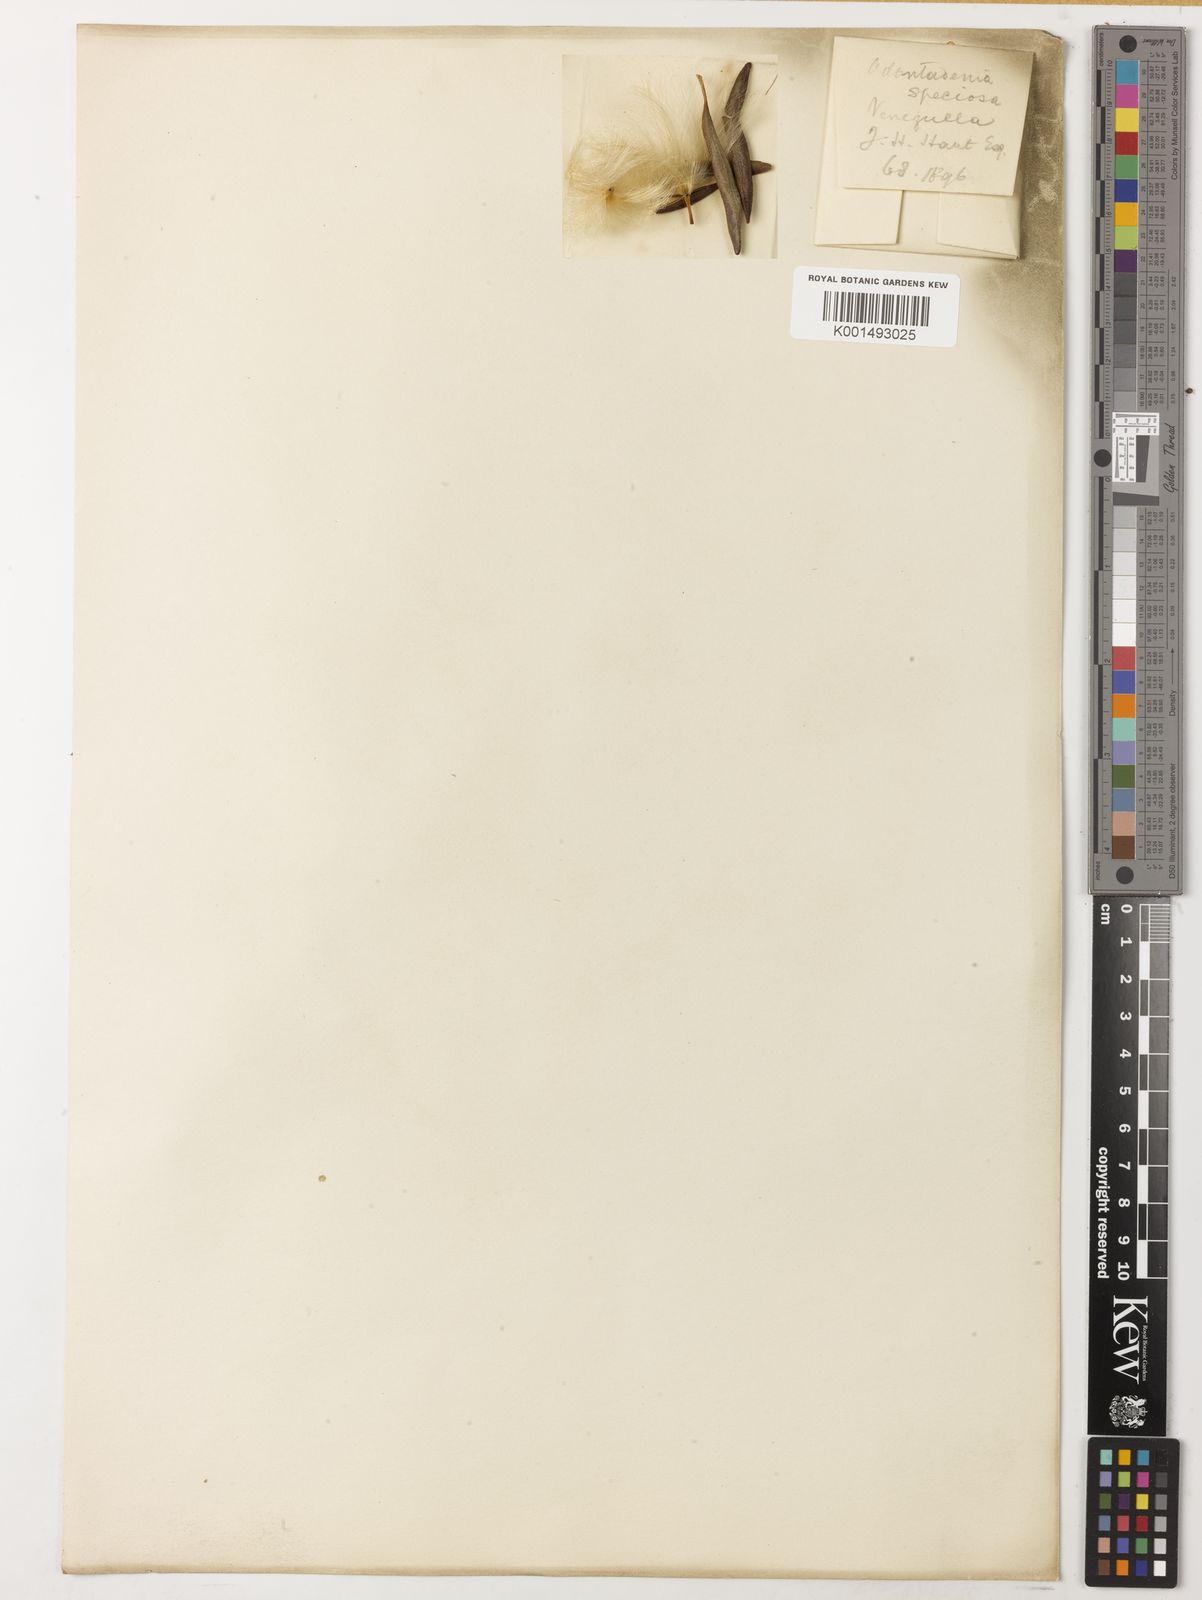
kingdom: Plantae
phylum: Tracheophyta
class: Magnoliopsida
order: Gentianales
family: Apocynaceae
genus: Odontadenia
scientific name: Odontadenia semidigyna
